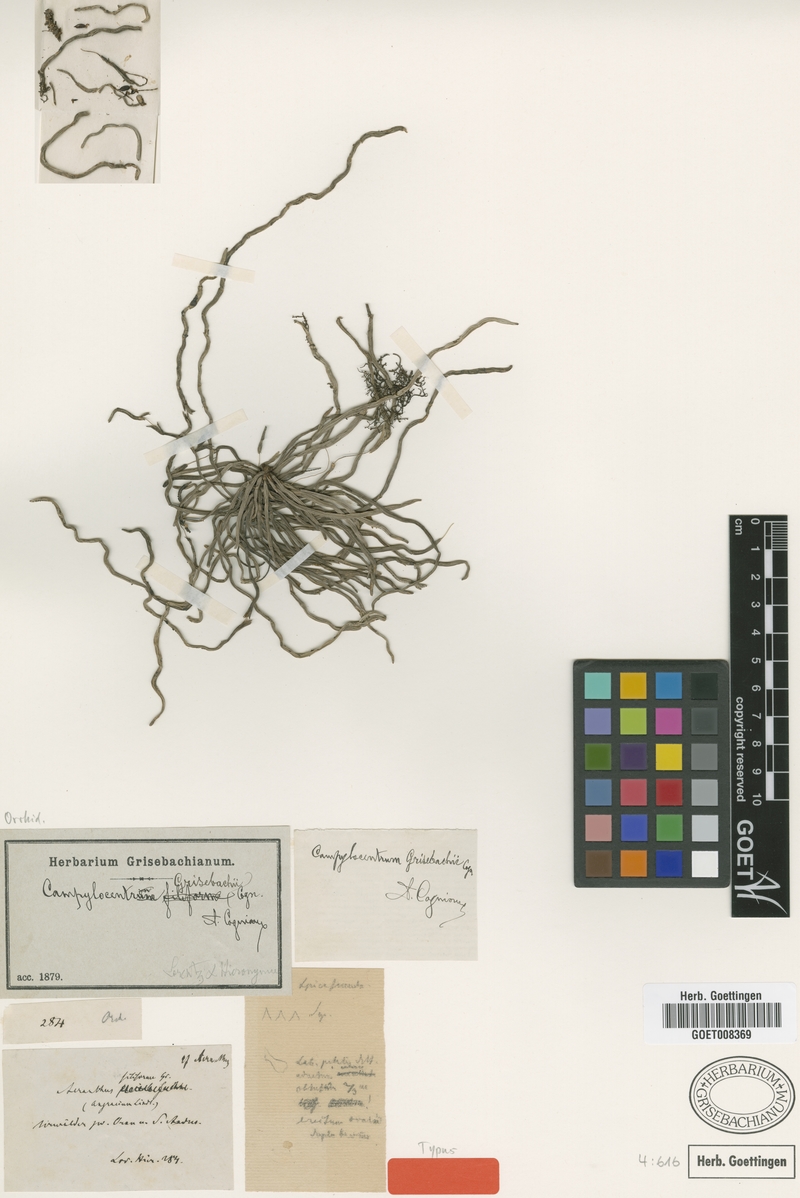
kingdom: Plantae
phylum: Tracheophyta
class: Liliopsida
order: Asparagales
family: Orchidaceae
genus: Campylocentrum
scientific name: Campylocentrum grisebachii
